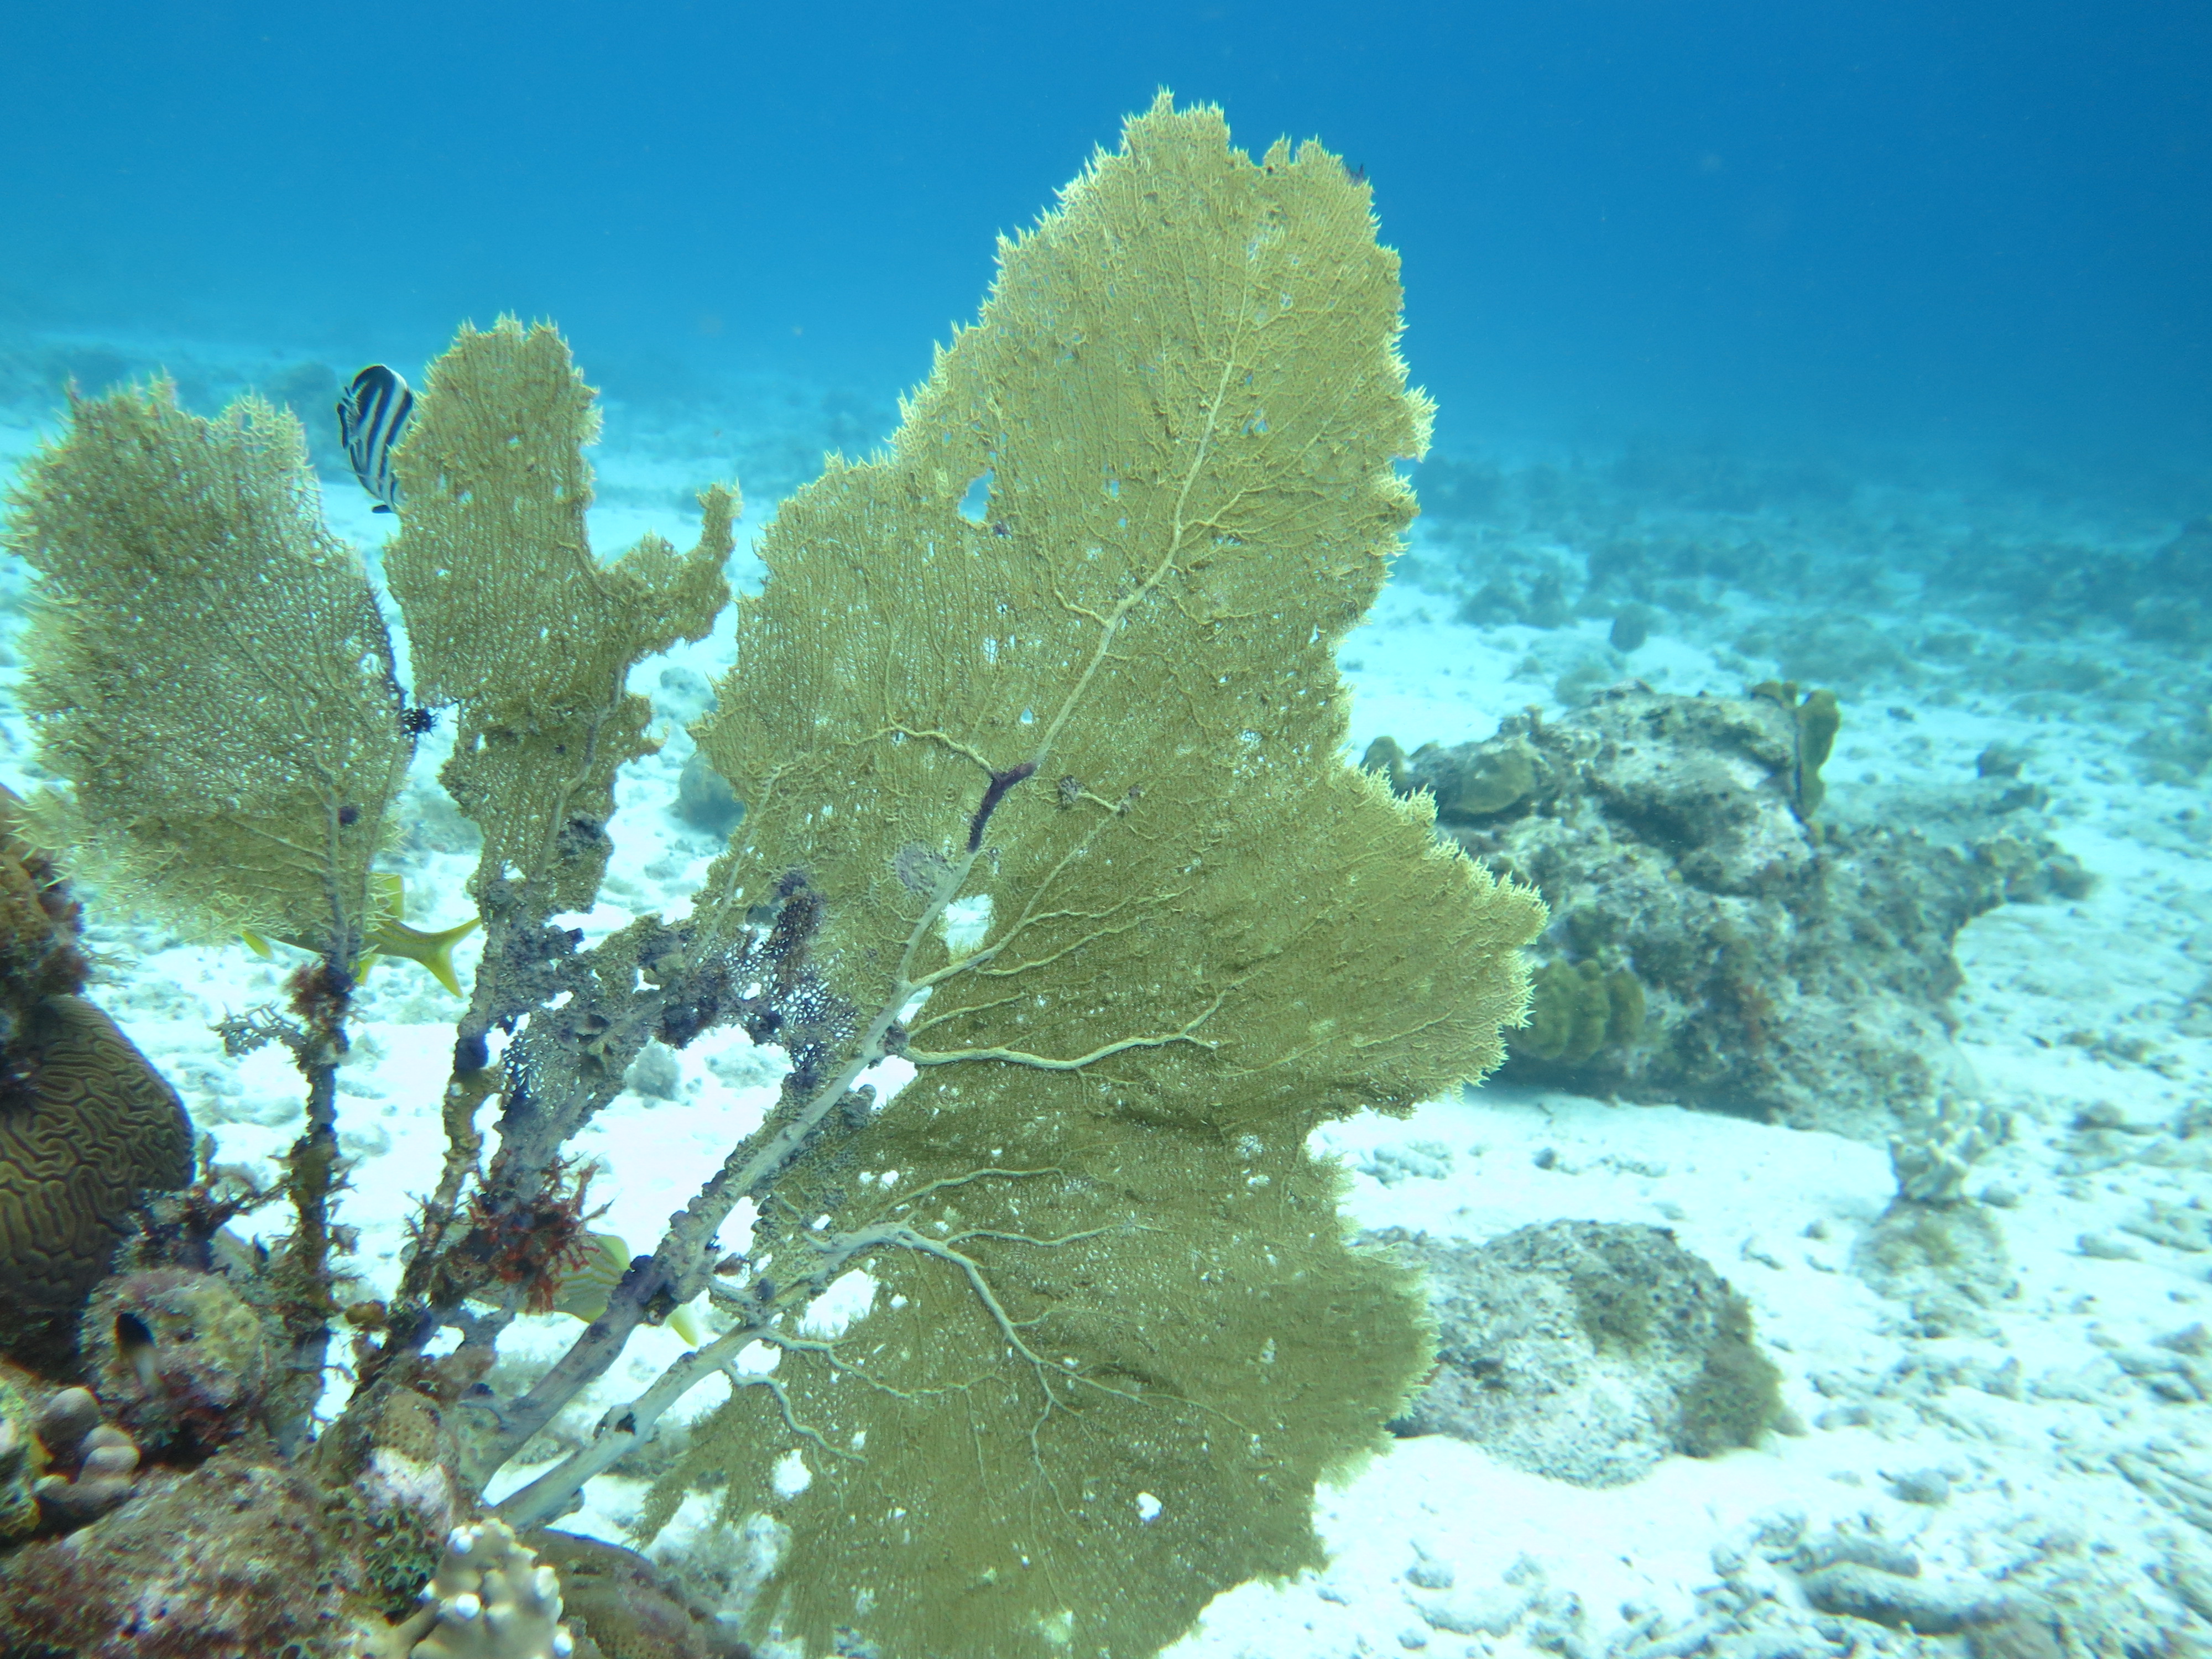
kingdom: Animalia
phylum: Cnidaria
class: Anthozoa
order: Malacalcyonacea
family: Gorgoniidae
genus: Gorgonia
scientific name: Gorgonia
